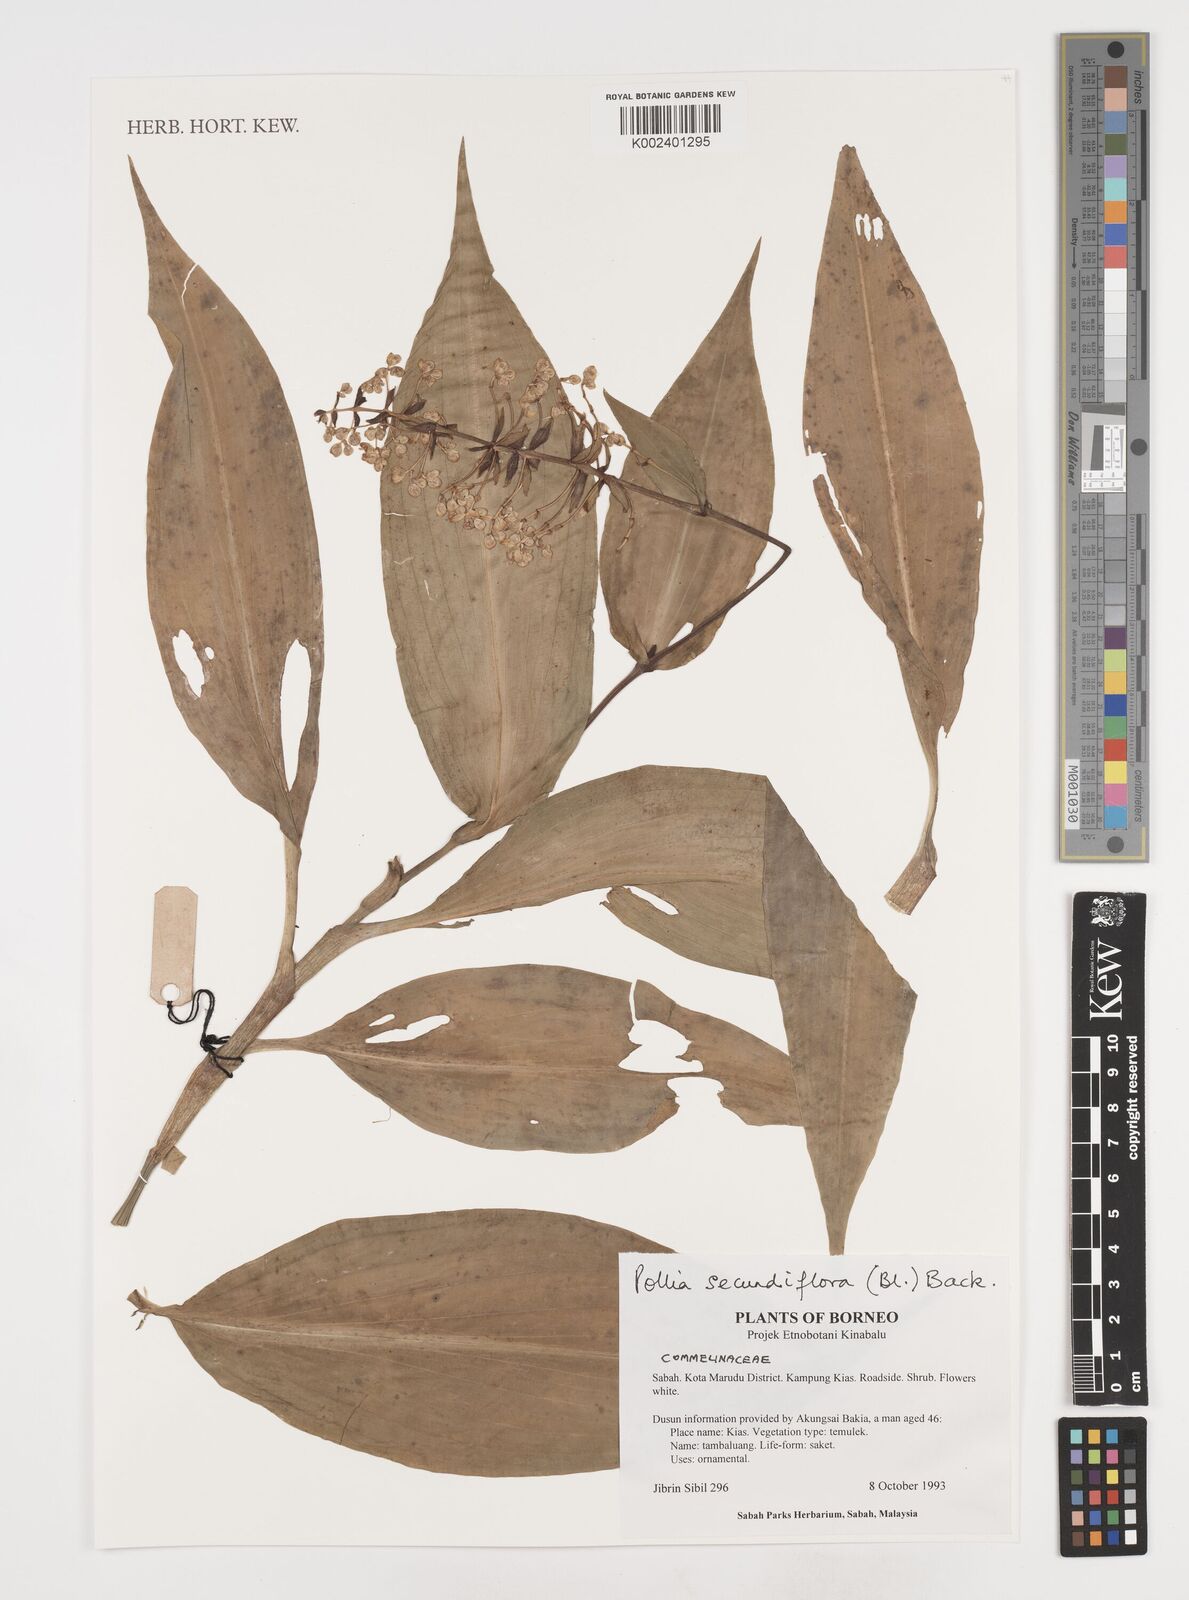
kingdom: Plantae
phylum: Tracheophyta
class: Liliopsida
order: Commelinales
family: Commelinaceae
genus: Pollia
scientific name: Pollia secundiflora
